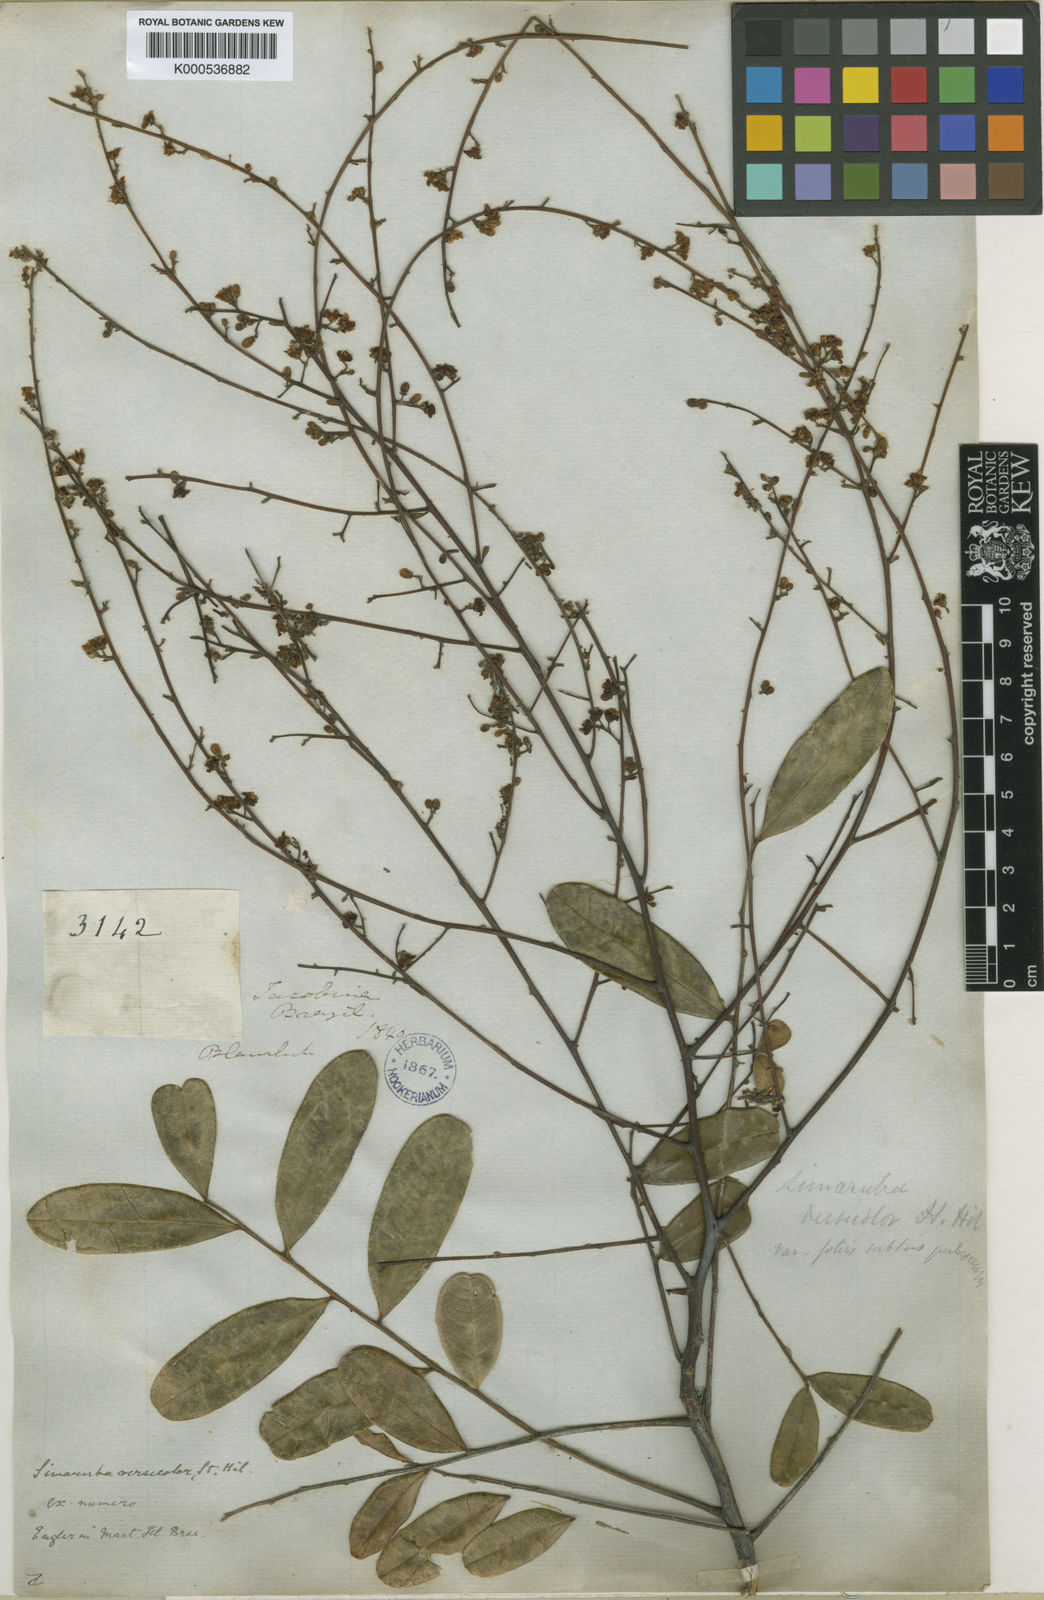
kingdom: Plantae
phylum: Tracheophyta
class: Magnoliopsida
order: Sapindales
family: Simaroubaceae
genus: Simarouba
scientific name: Simarouba versicolor
